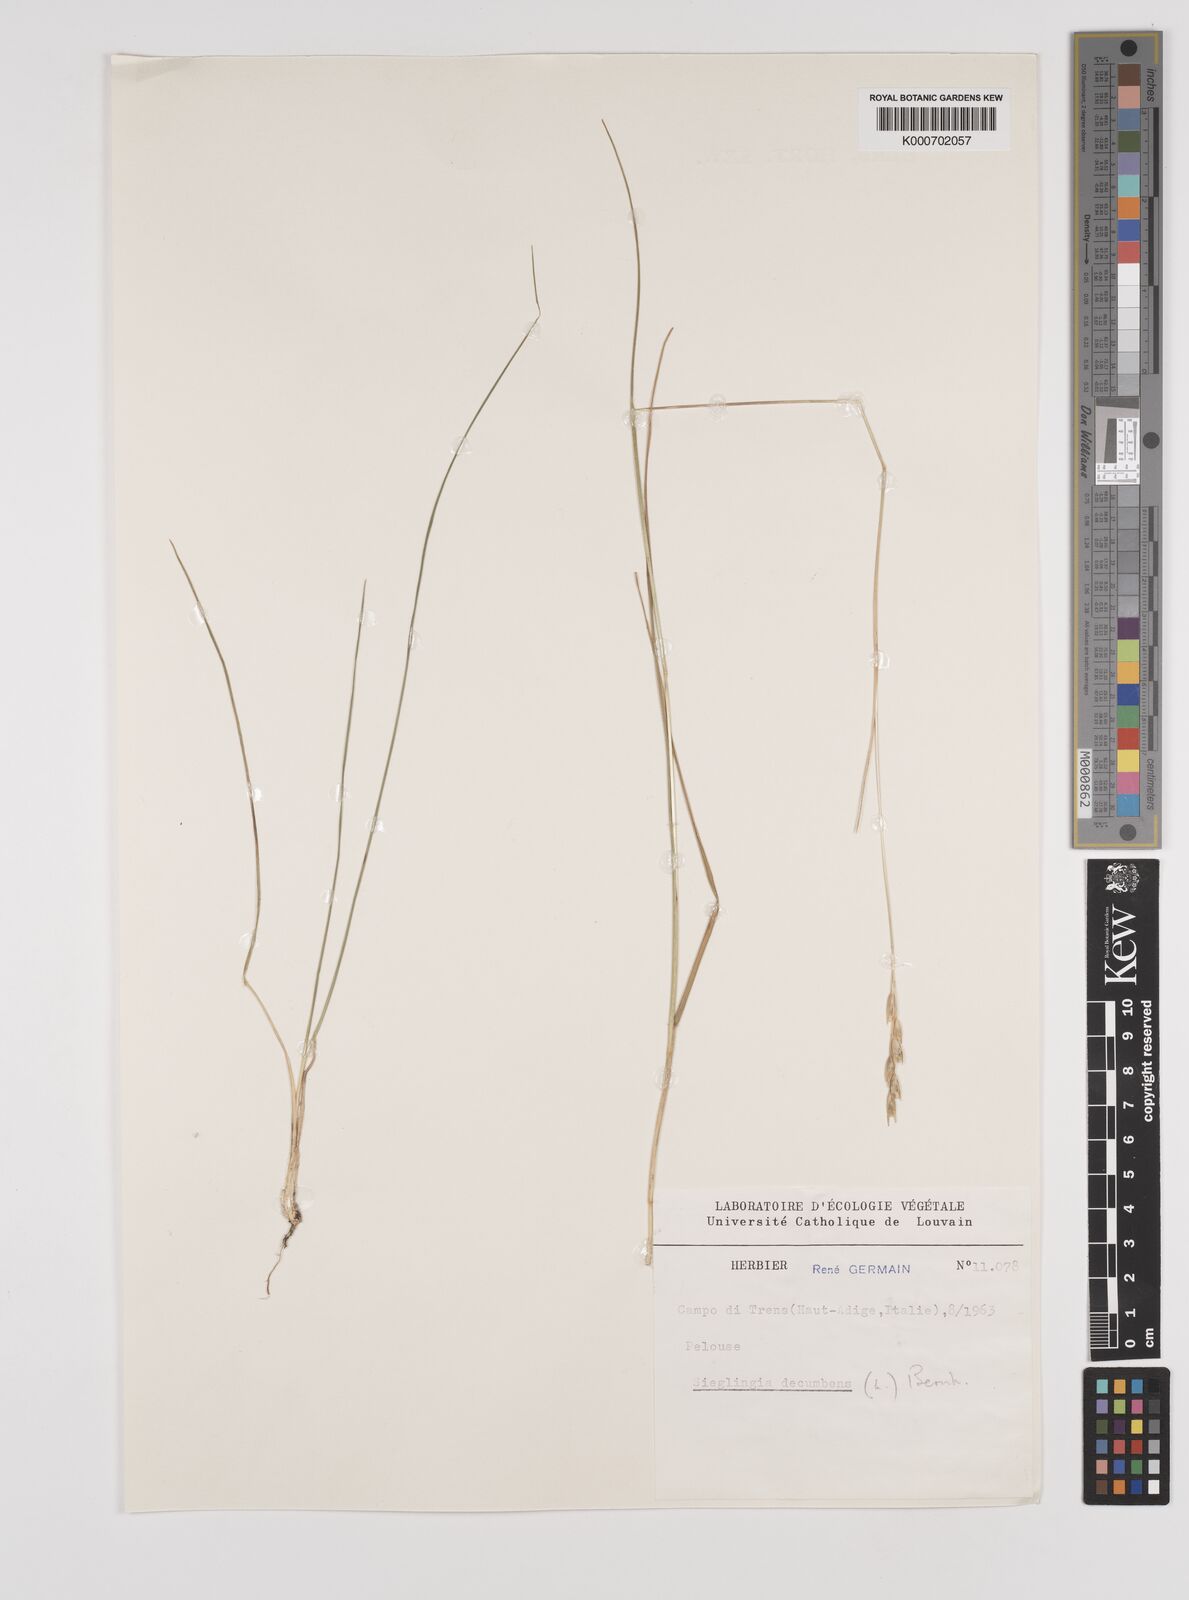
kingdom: Plantae
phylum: Tracheophyta
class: Liliopsida
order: Poales
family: Poaceae
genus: Danthonia
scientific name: Danthonia decumbens
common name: Common heathgrass
